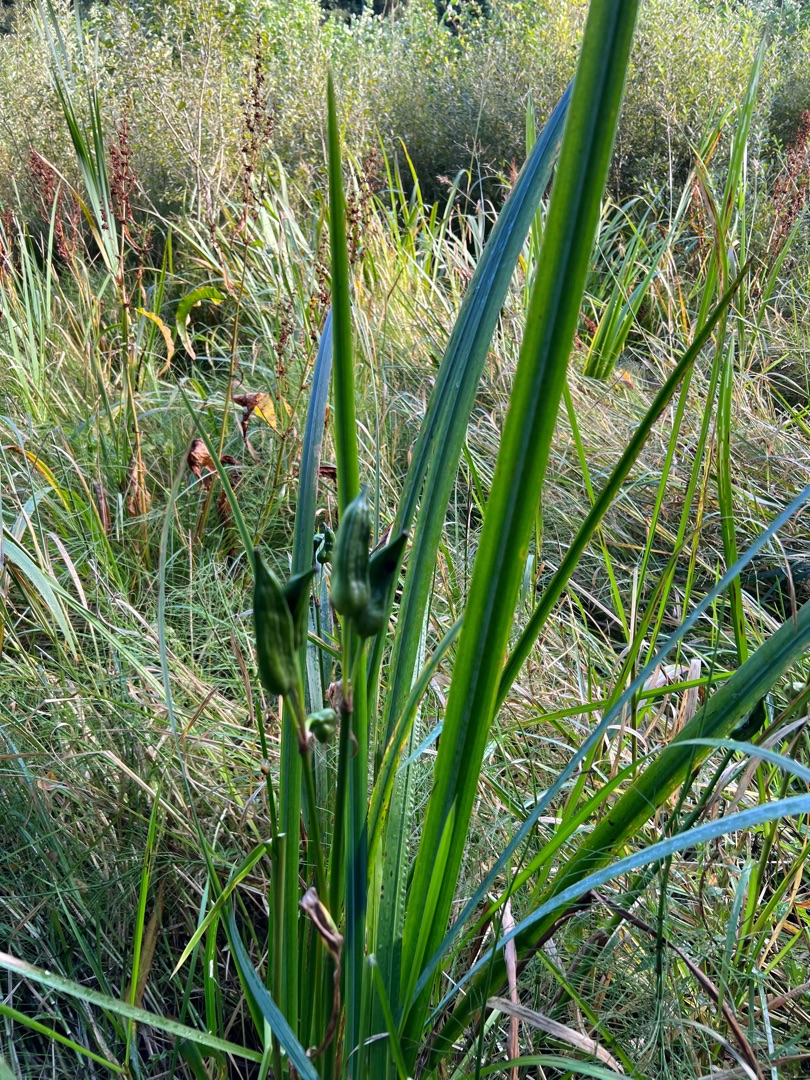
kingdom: Plantae
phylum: Tracheophyta
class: Liliopsida
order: Asparagales
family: Iridaceae
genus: Iris
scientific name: Iris pseudacorus
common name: Gul iris
